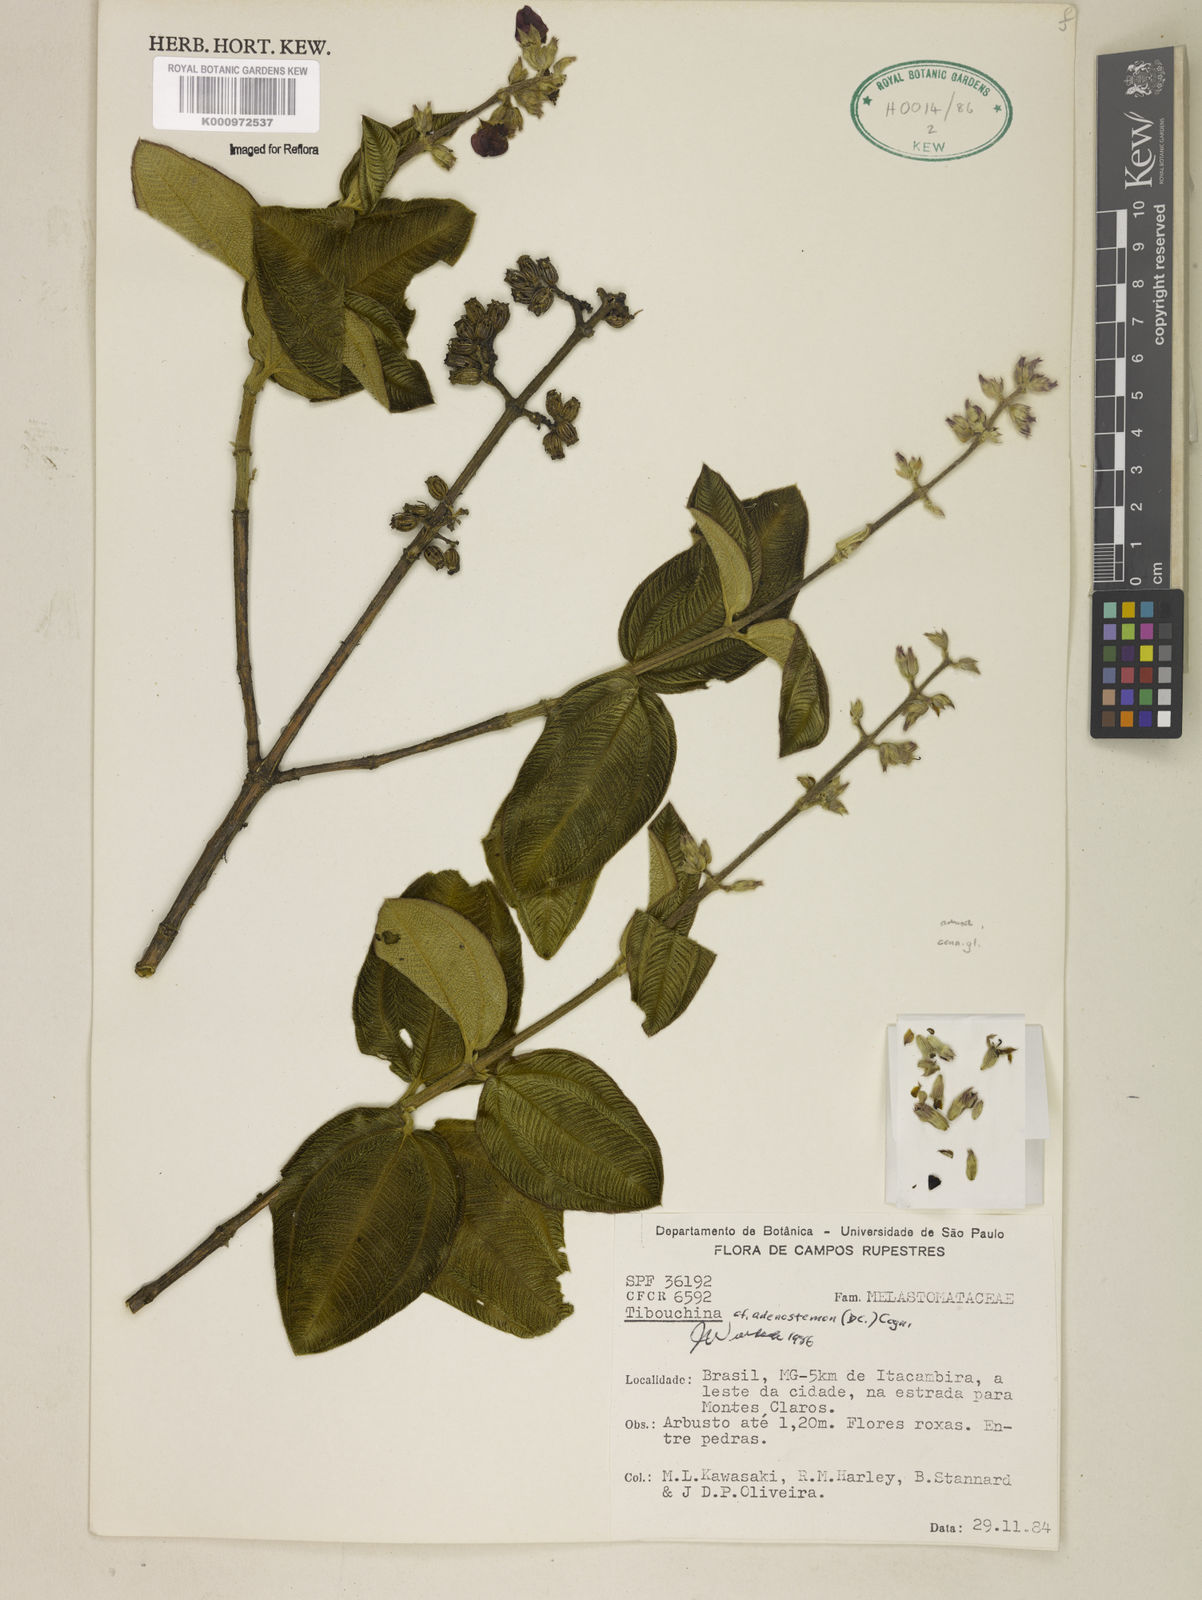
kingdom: Plantae
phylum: Tracheophyta
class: Magnoliopsida
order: Myrtales
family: Melastomataceae
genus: Pleroma
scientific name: Pleroma heteromallum
